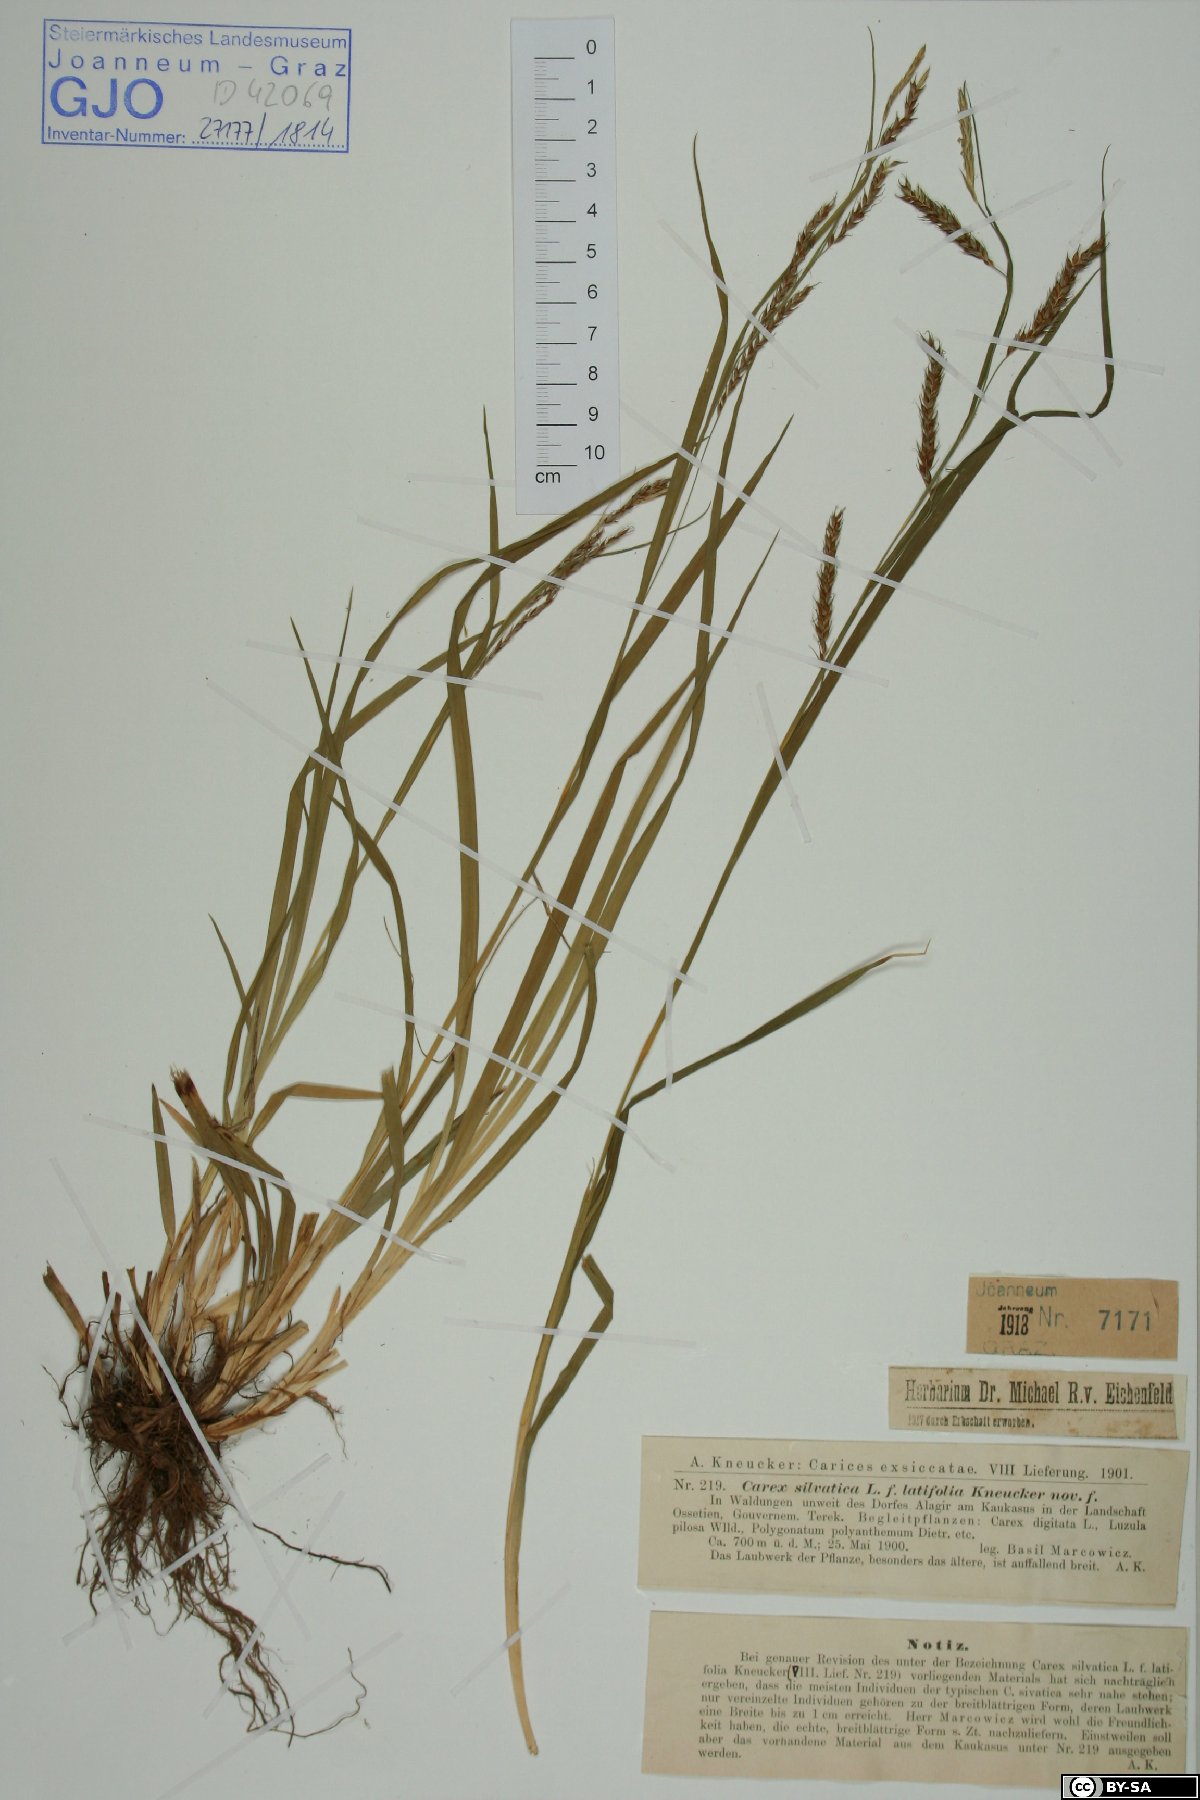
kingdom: Plantae
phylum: Tracheophyta
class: Liliopsida
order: Poales
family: Cyperaceae
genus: Carex
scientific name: Carex sylvatica
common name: Wood-sedge
